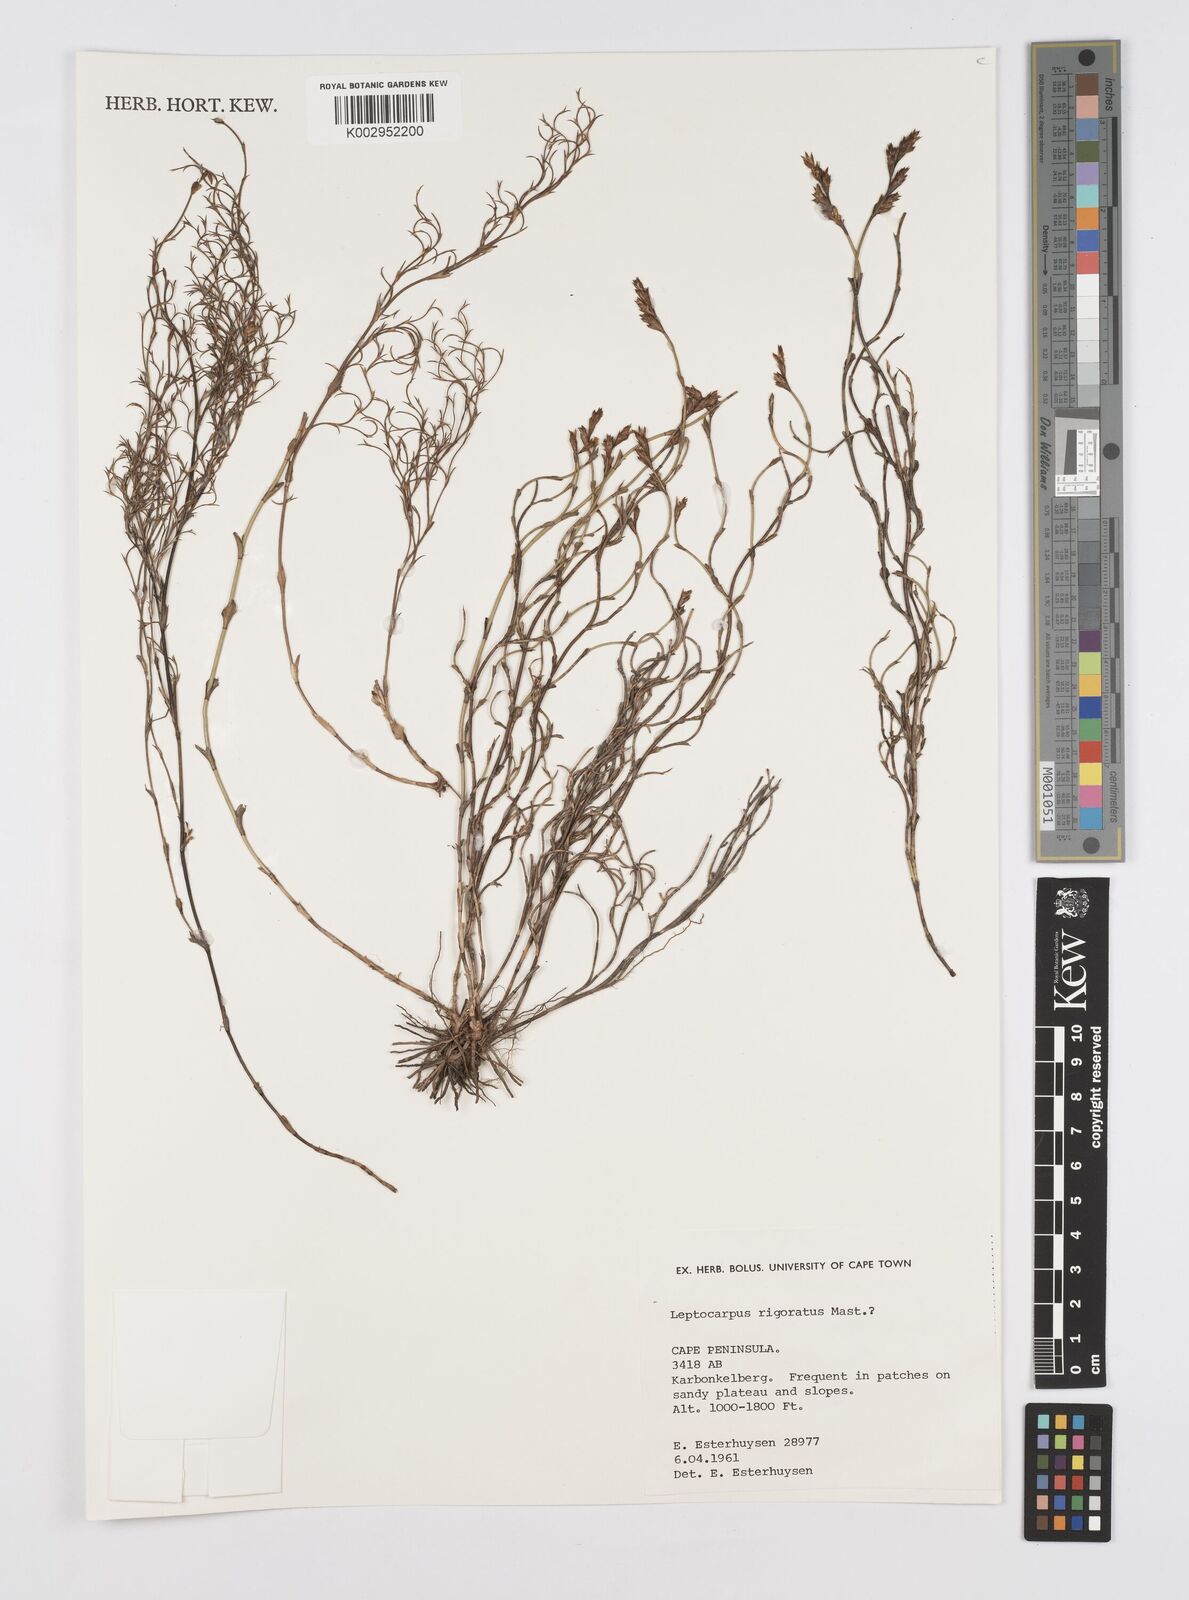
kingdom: Plantae
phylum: Tracheophyta
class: Liliopsida
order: Poales
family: Restionaceae
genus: Restio
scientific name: Restio rigoratus
